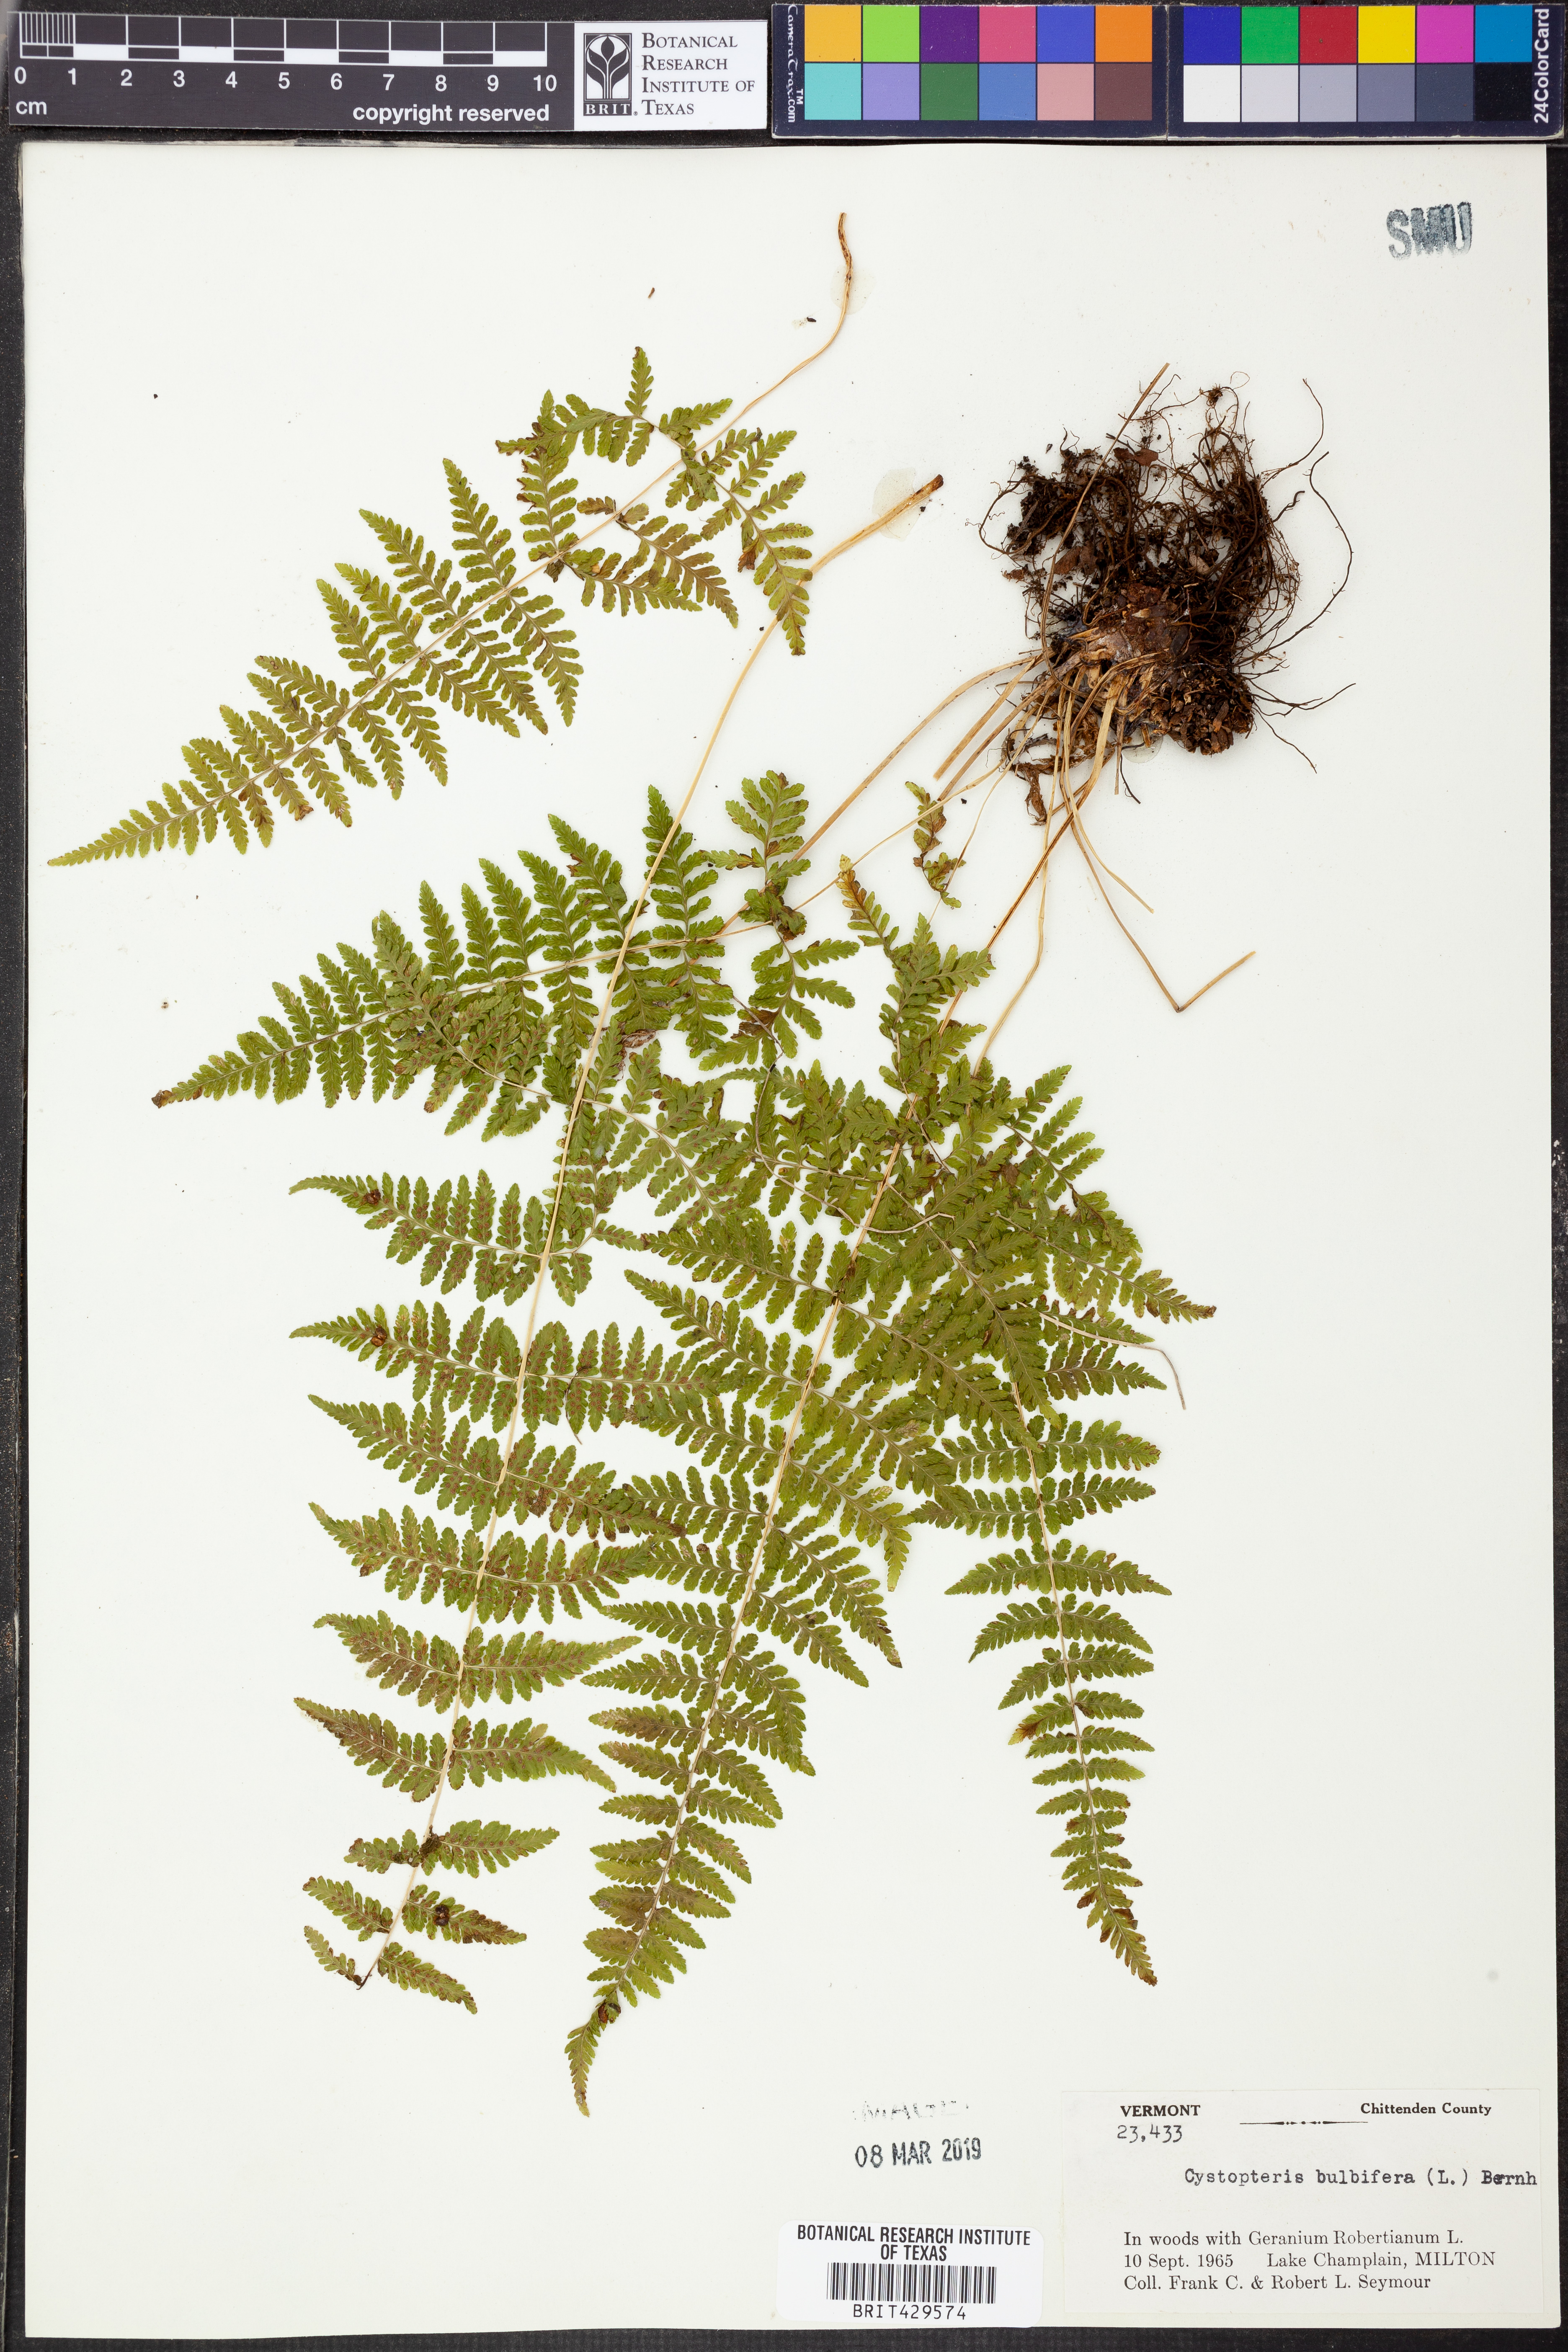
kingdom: Plantae
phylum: Tracheophyta
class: Polypodiopsida
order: Polypodiales
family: Cystopteridaceae
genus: Cystopteris
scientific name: Cystopteris bulbifera
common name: Bulblet bladder fern
